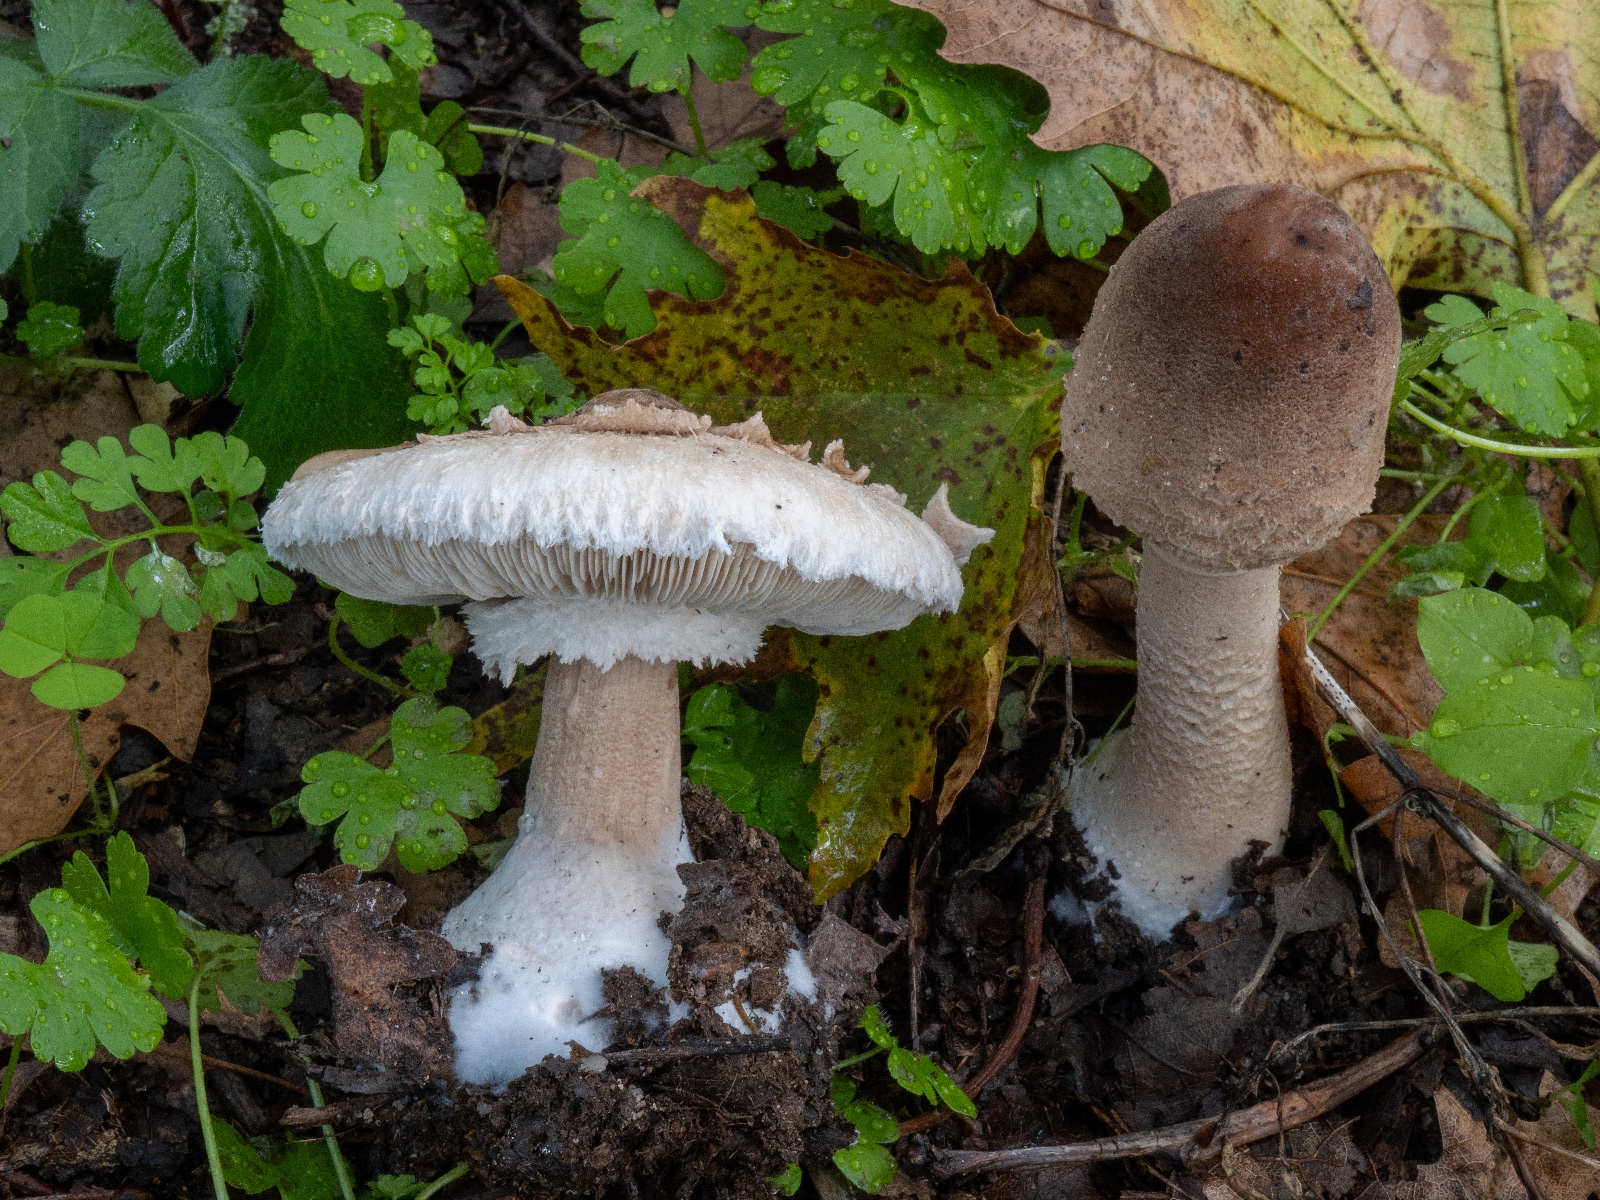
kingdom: Fungi
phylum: Basidiomycota
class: Agaricomycetes
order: Agaricales
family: Agaricaceae
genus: Macrolepiota
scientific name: Macrolepiota mastoidea
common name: puklet kæmpeparasolhat
